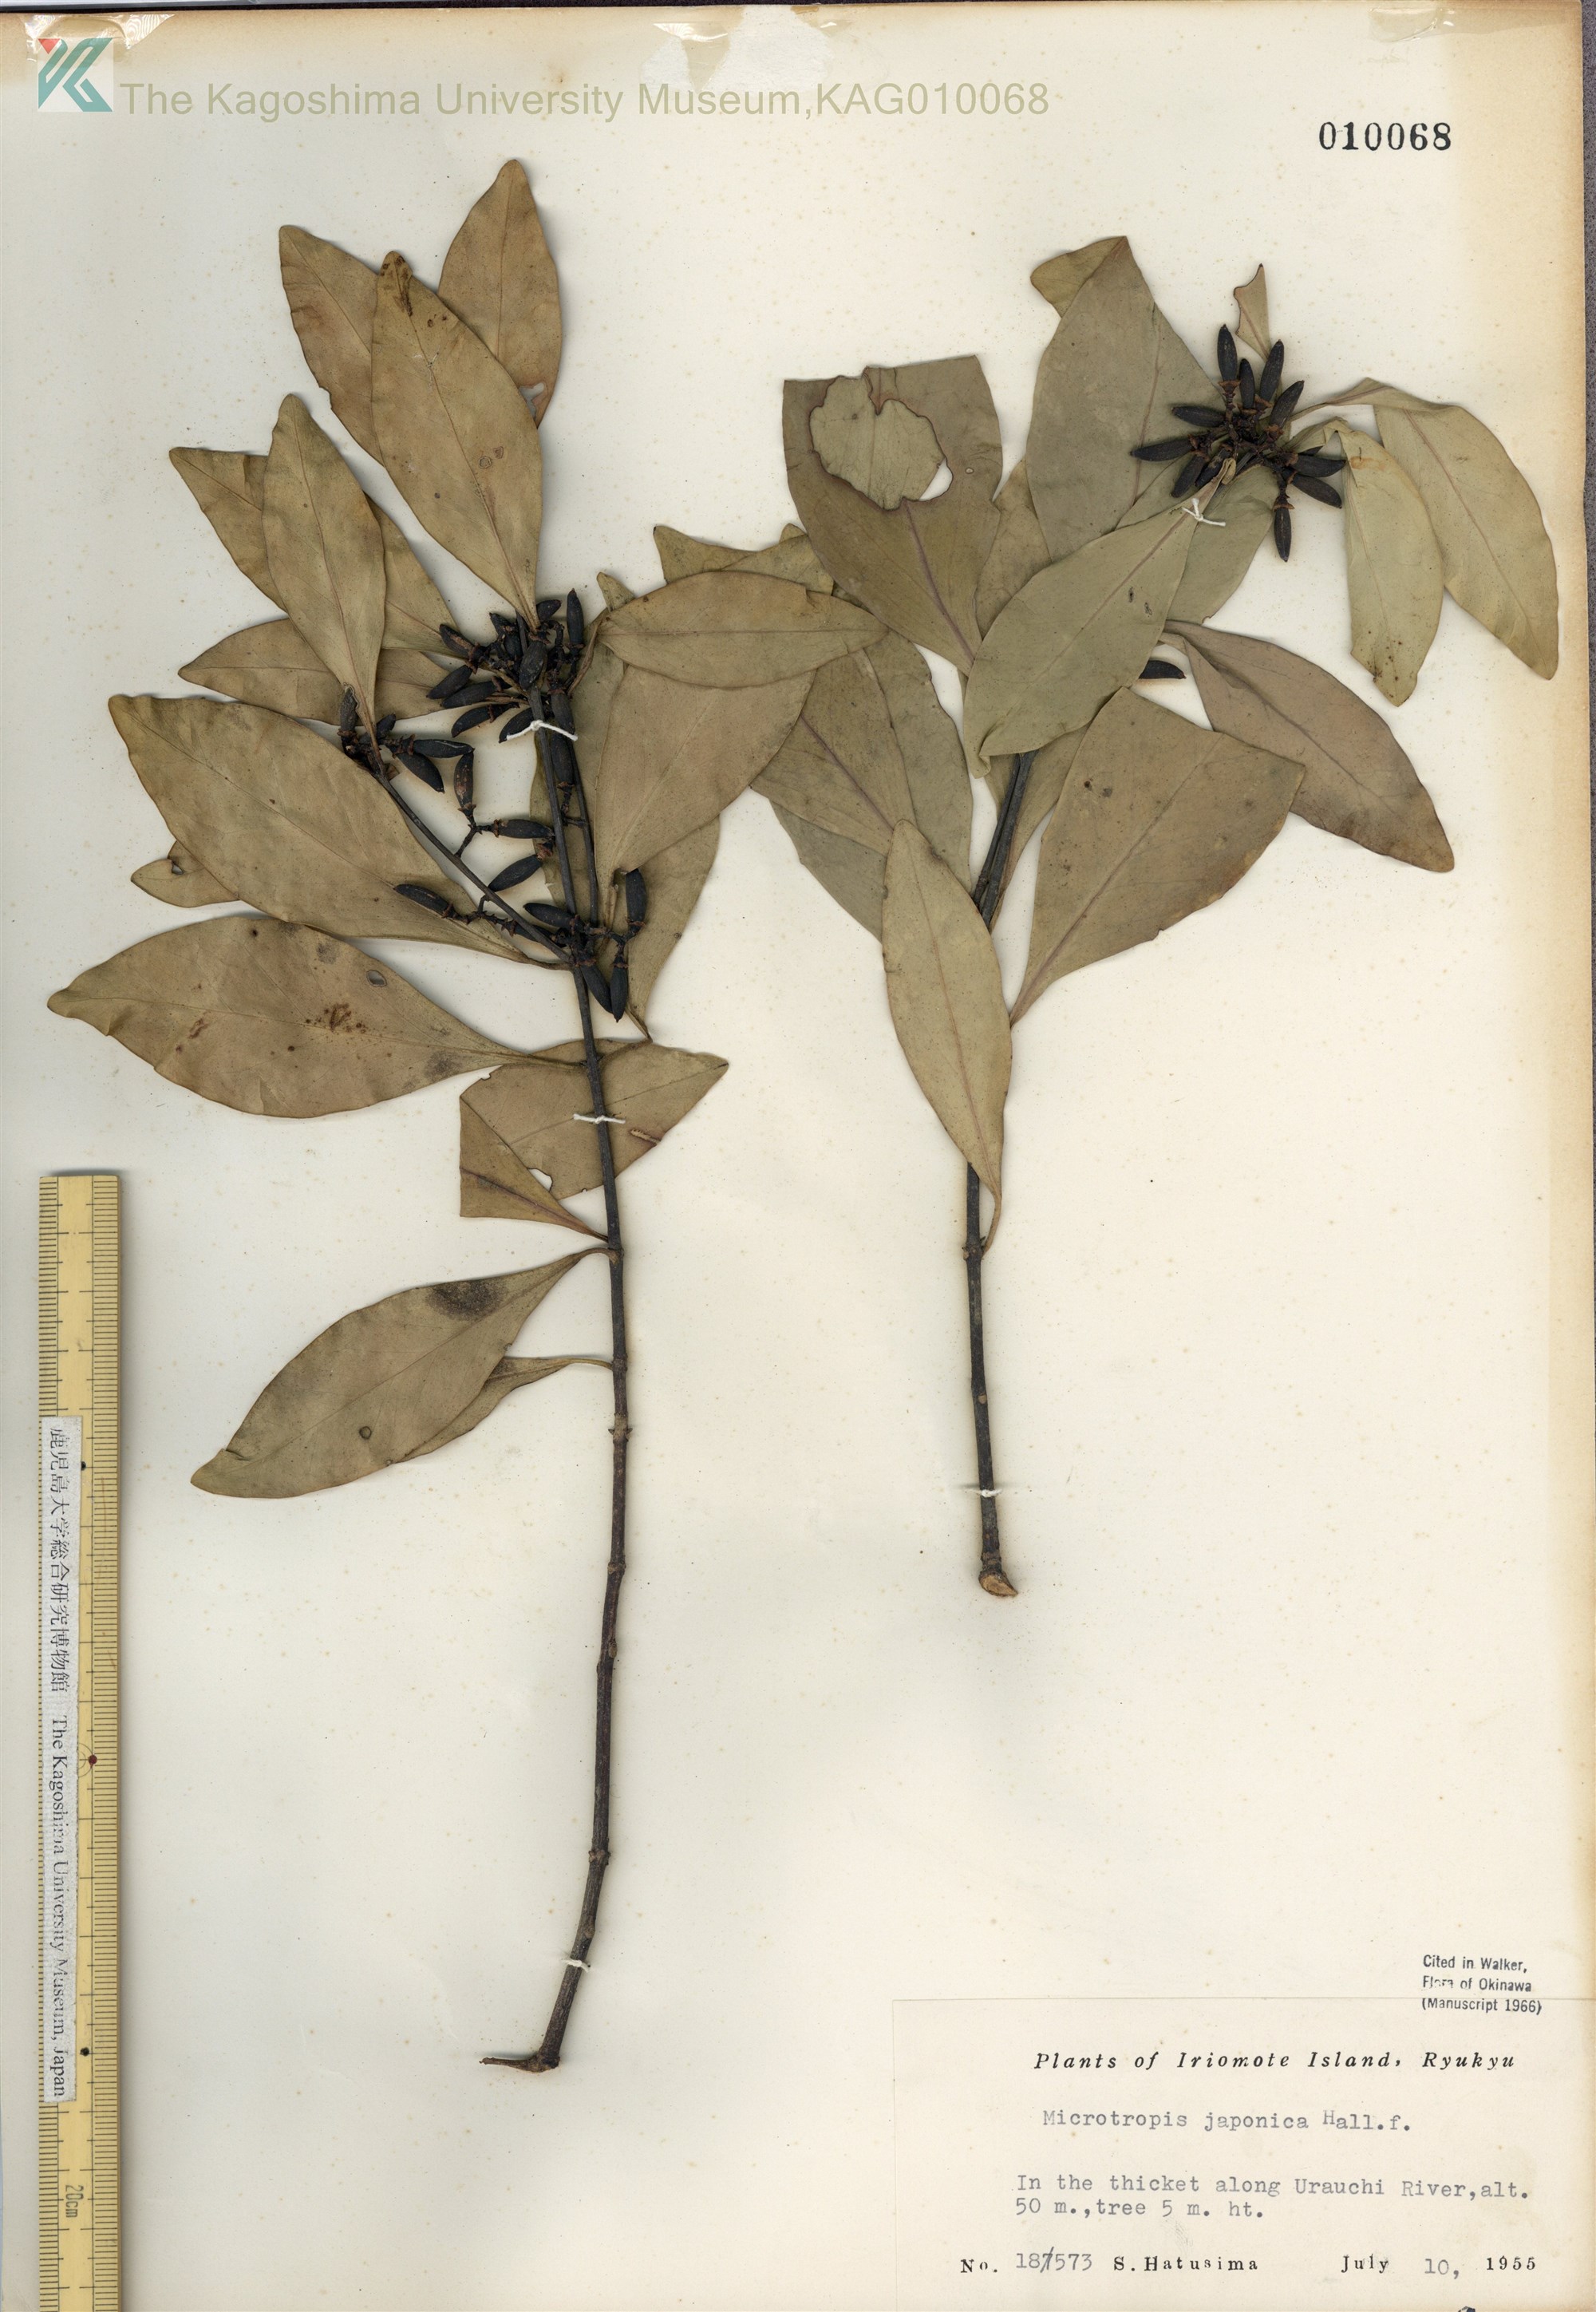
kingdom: Plantae
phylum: Tracheophyta
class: Magnoliopsida
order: Celastrales
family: Celastraceae
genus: Microtropis
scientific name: Microtropis japonica
